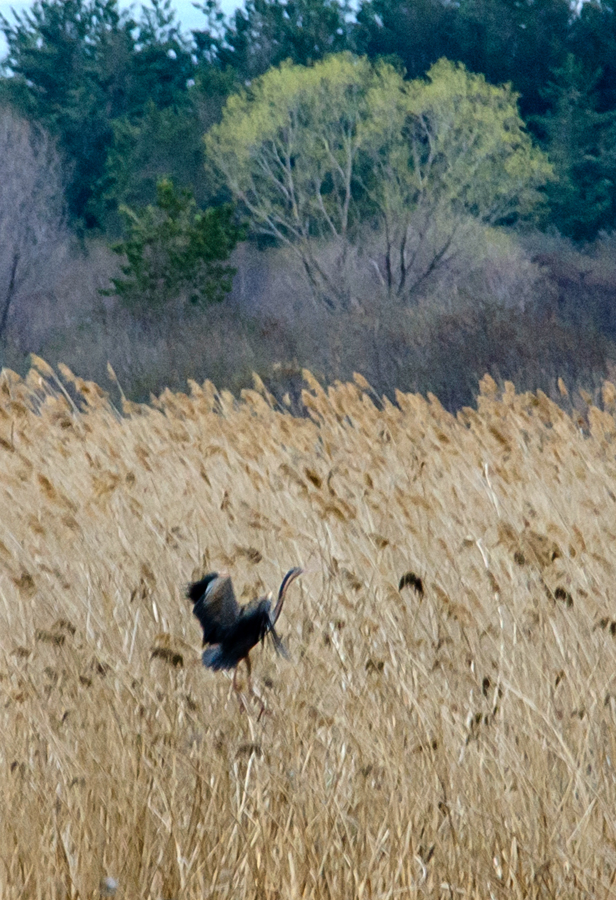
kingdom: Animalia
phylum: Chordata
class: Aves
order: Pelecaniformes
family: Ardeidae
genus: Ardea
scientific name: Ardea purpurea
